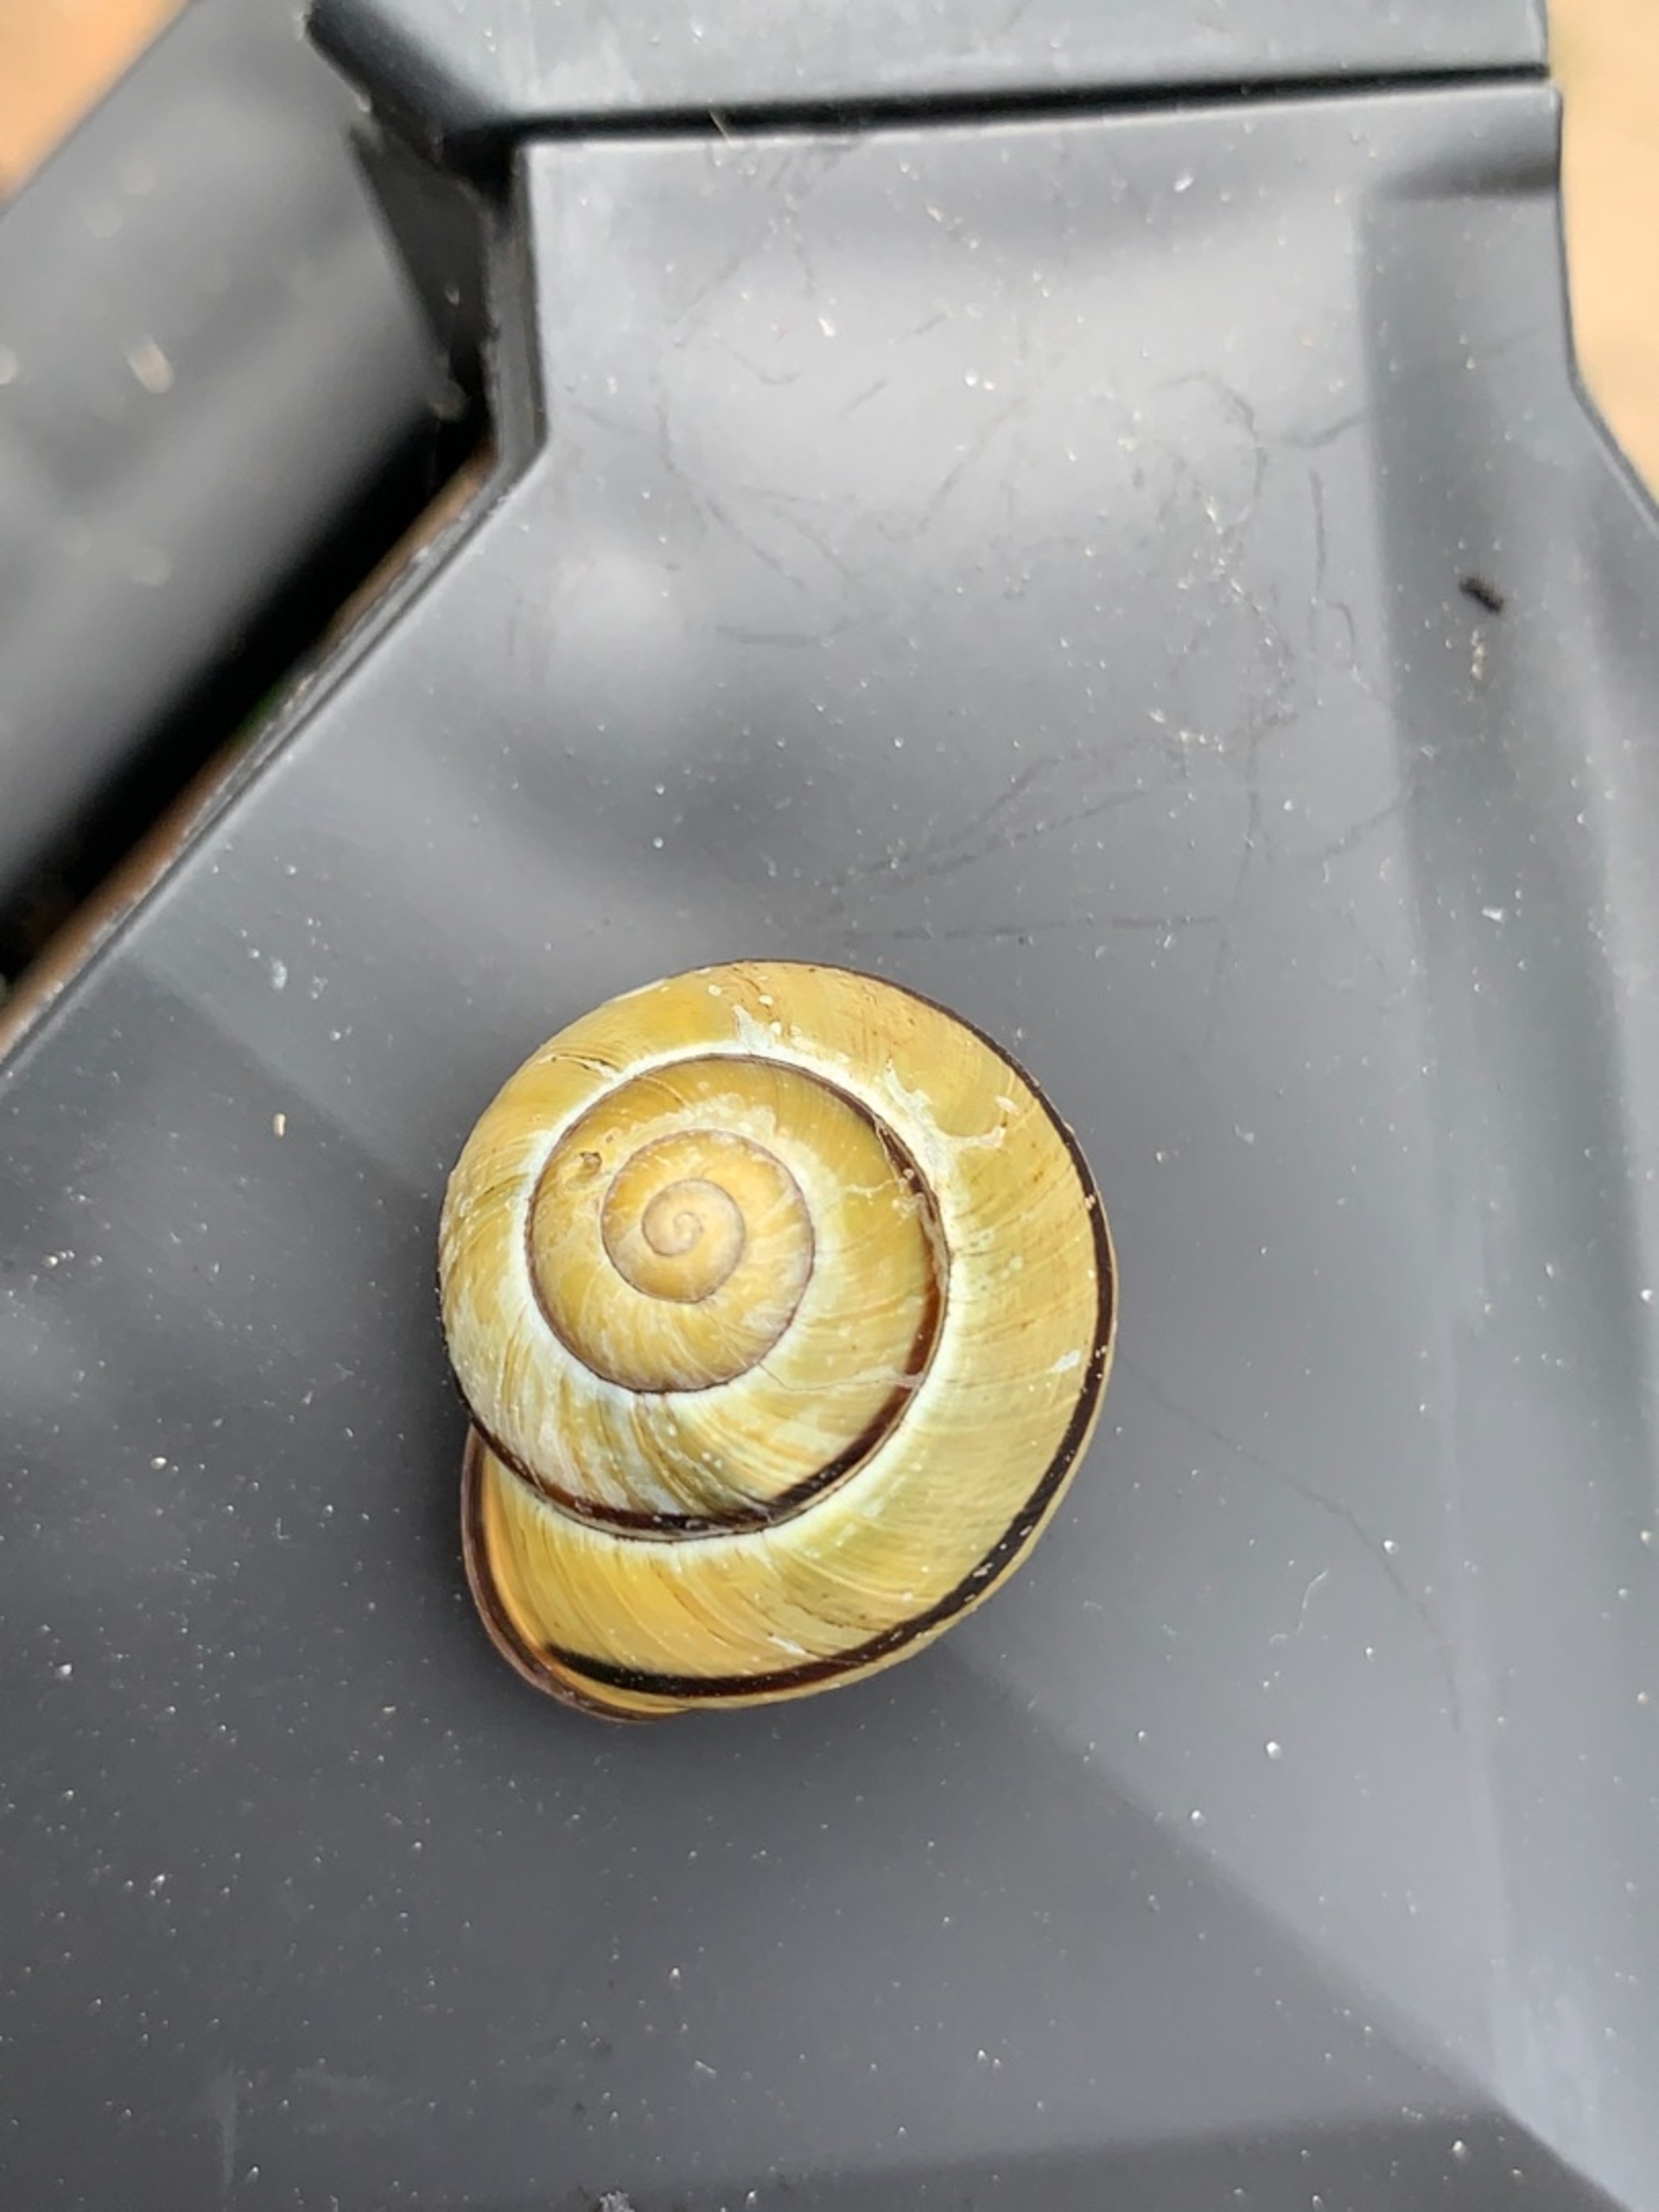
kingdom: Animalia
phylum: Mollusca
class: Gastropoda
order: Stylommatophora
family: Helicidae
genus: Cepaea
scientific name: Cepaea nemoralis
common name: Lundsnegl
